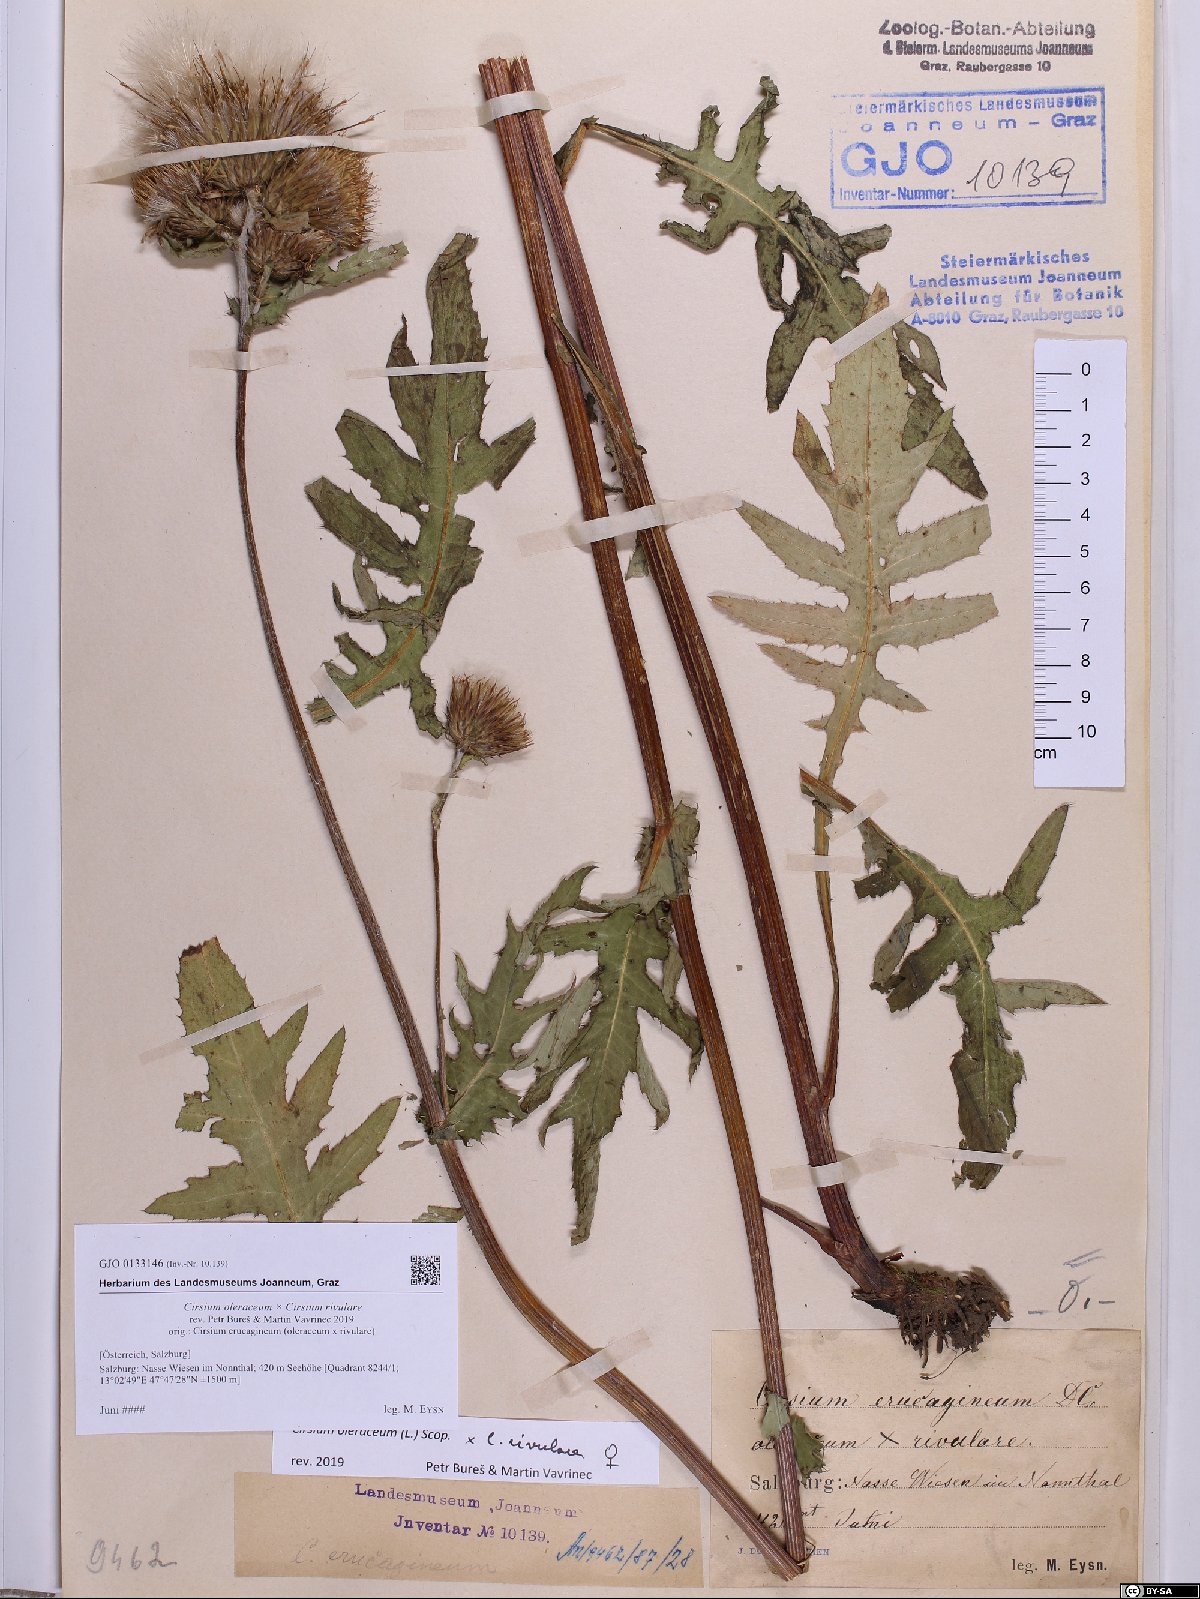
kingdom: Plantae
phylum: Tracheophyta
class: Magnoliopsida
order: Asterales
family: Asteraceae
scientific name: Asteraceae
